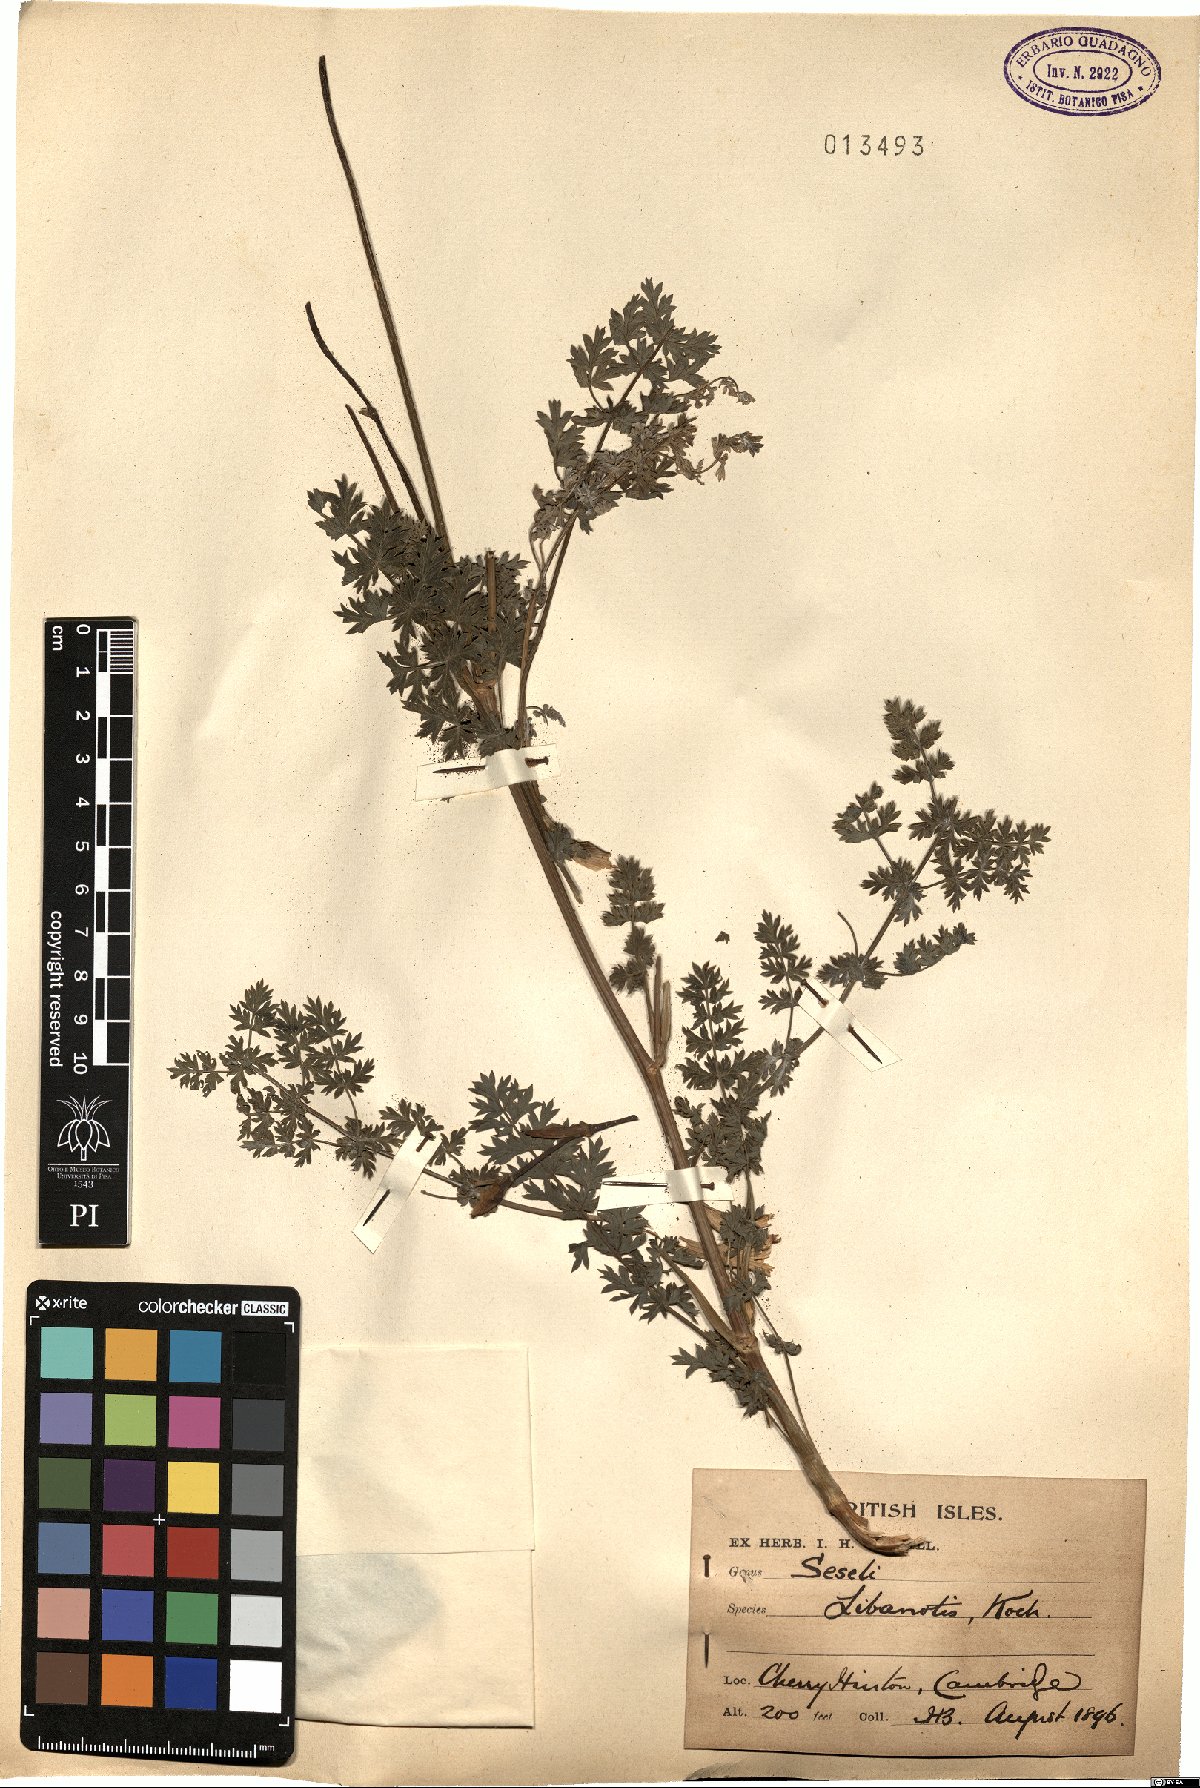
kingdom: Plantae
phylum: Tracheophyta
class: Magnoliopsida
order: Apiales
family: Apiaceae
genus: Seseli
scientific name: Seseli libanotis
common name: Mooncarrot
